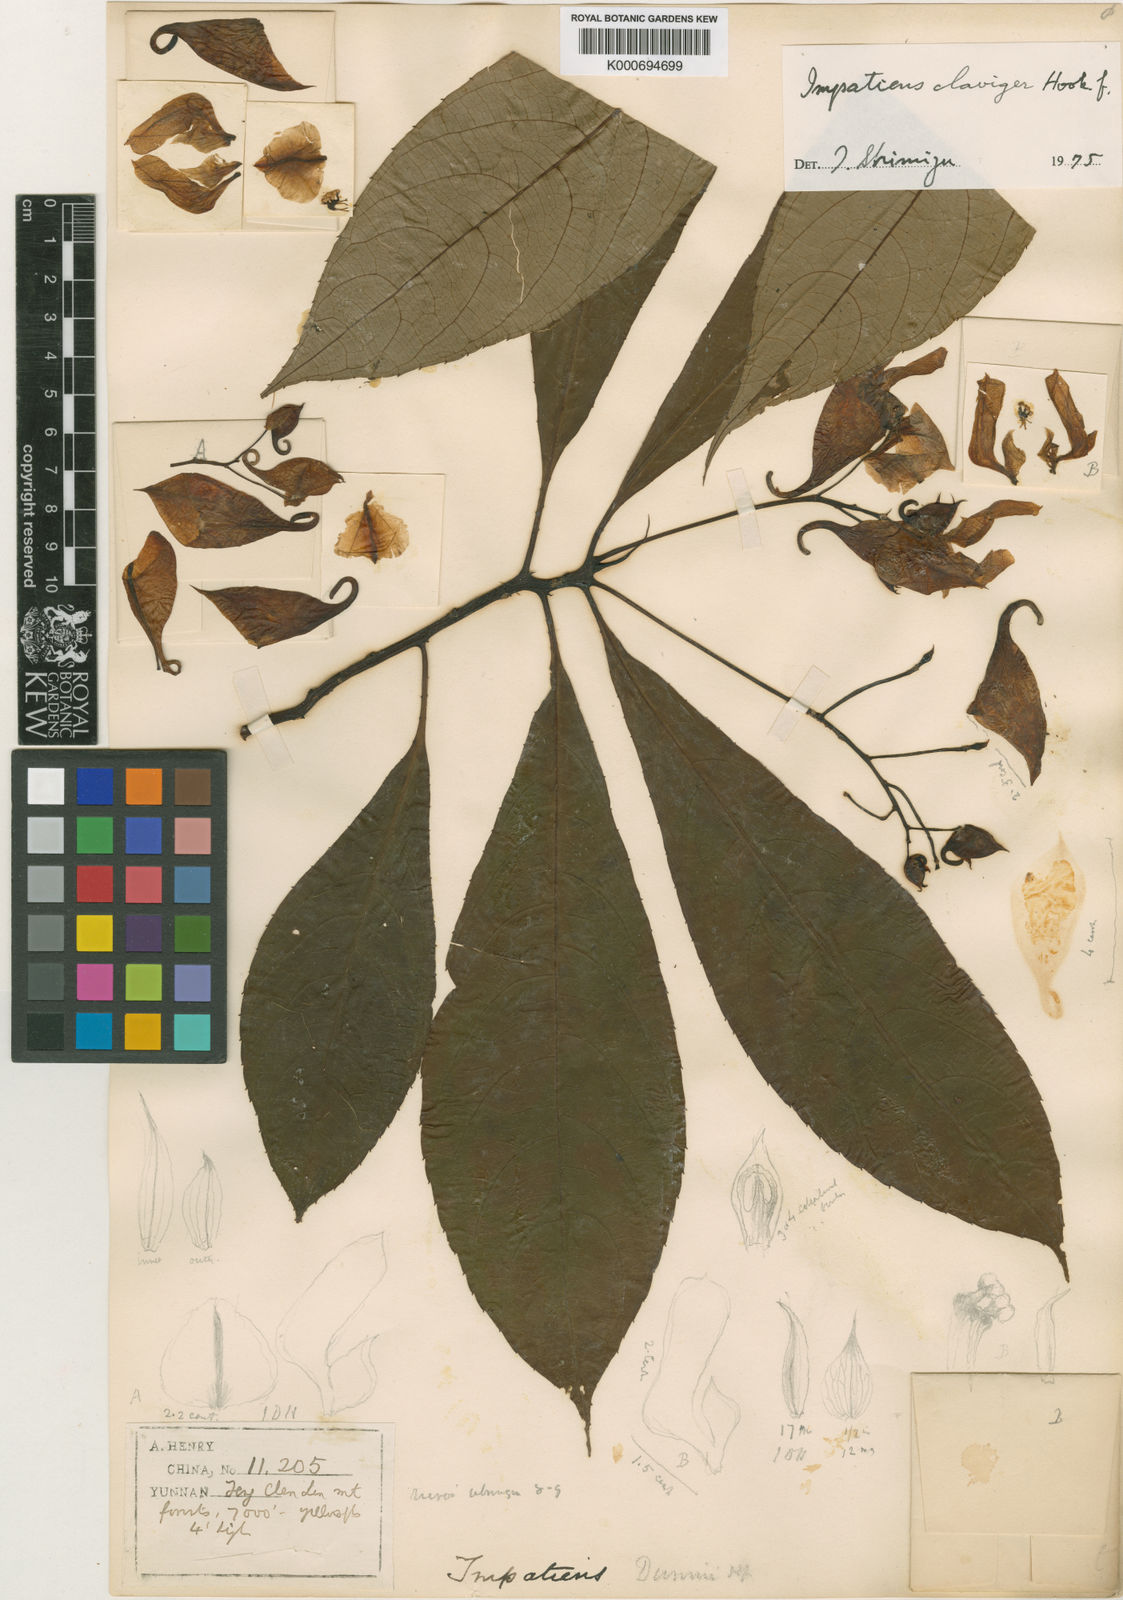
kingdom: Plantae
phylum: Tracheophyta
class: Magnoliopsida
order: Ericales
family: Balsaminaceae
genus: Impatiens
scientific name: Impatiens
